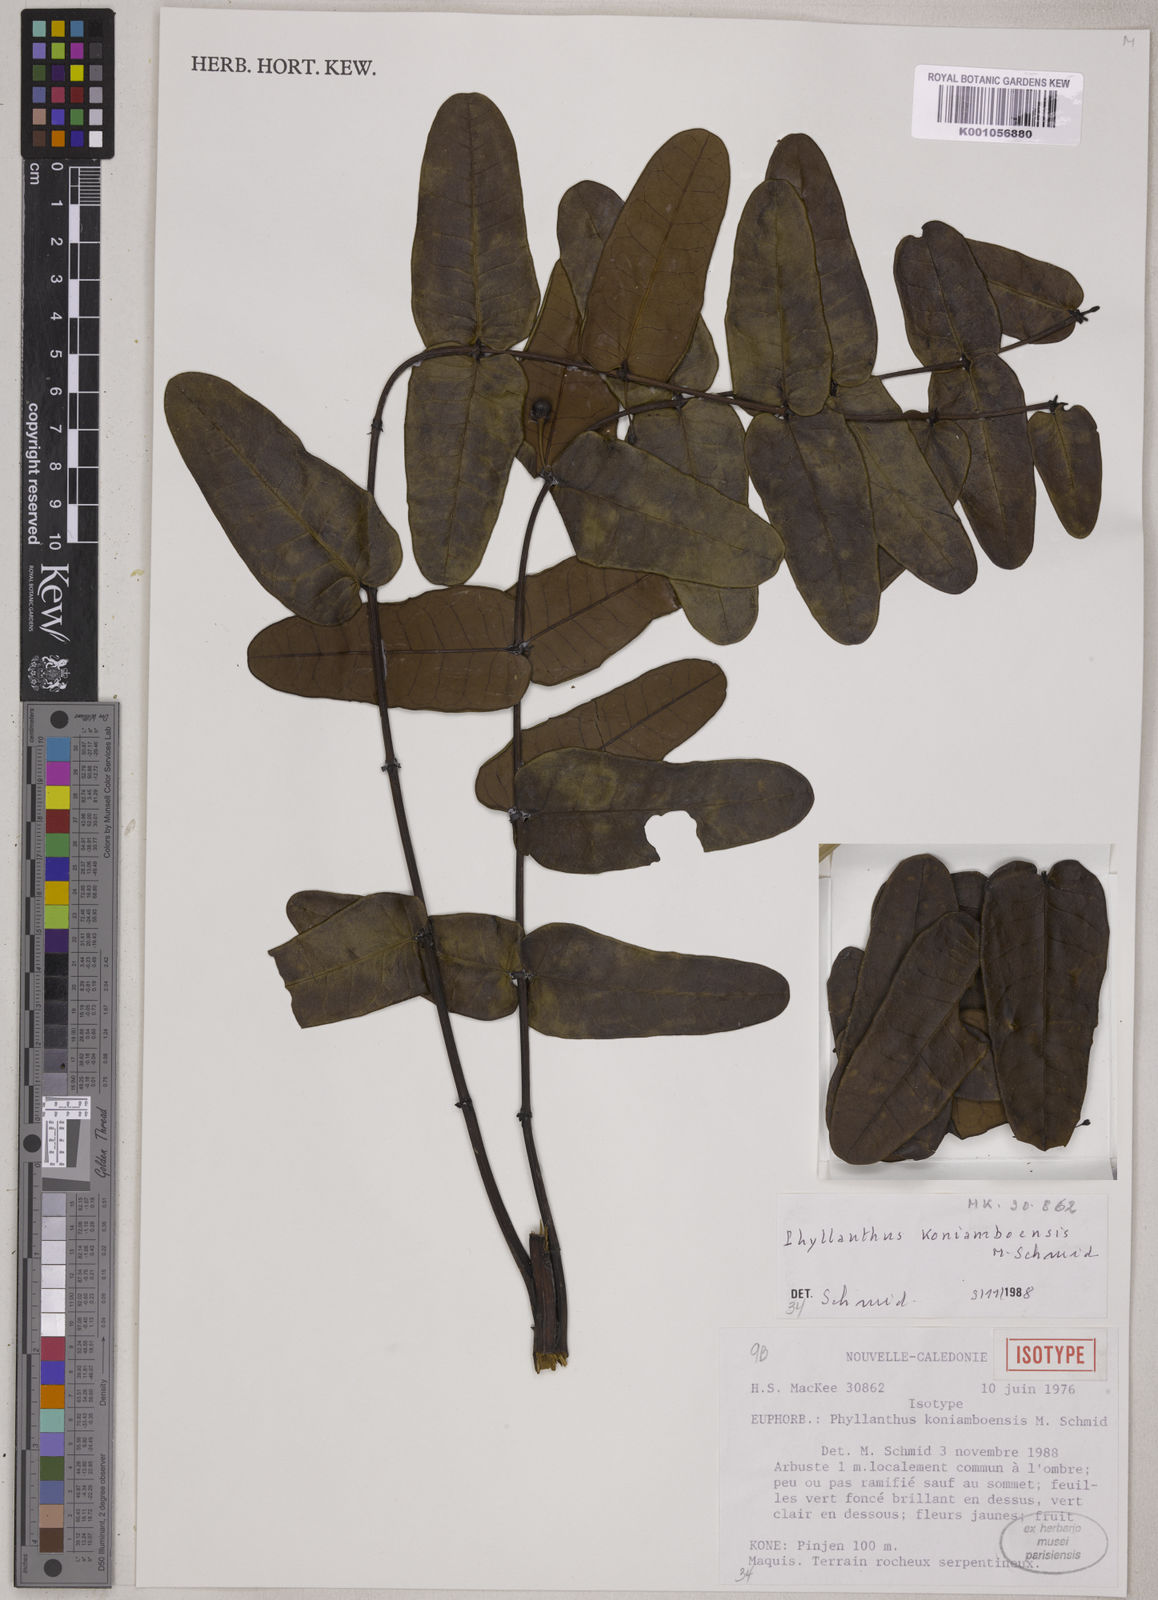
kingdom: Plantae
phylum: Tracheophyta
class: Magnoliopsida
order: Malpighiales
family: Phyllanthaceae
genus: Phyllanthus
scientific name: Phyllanthus koniamboensis
